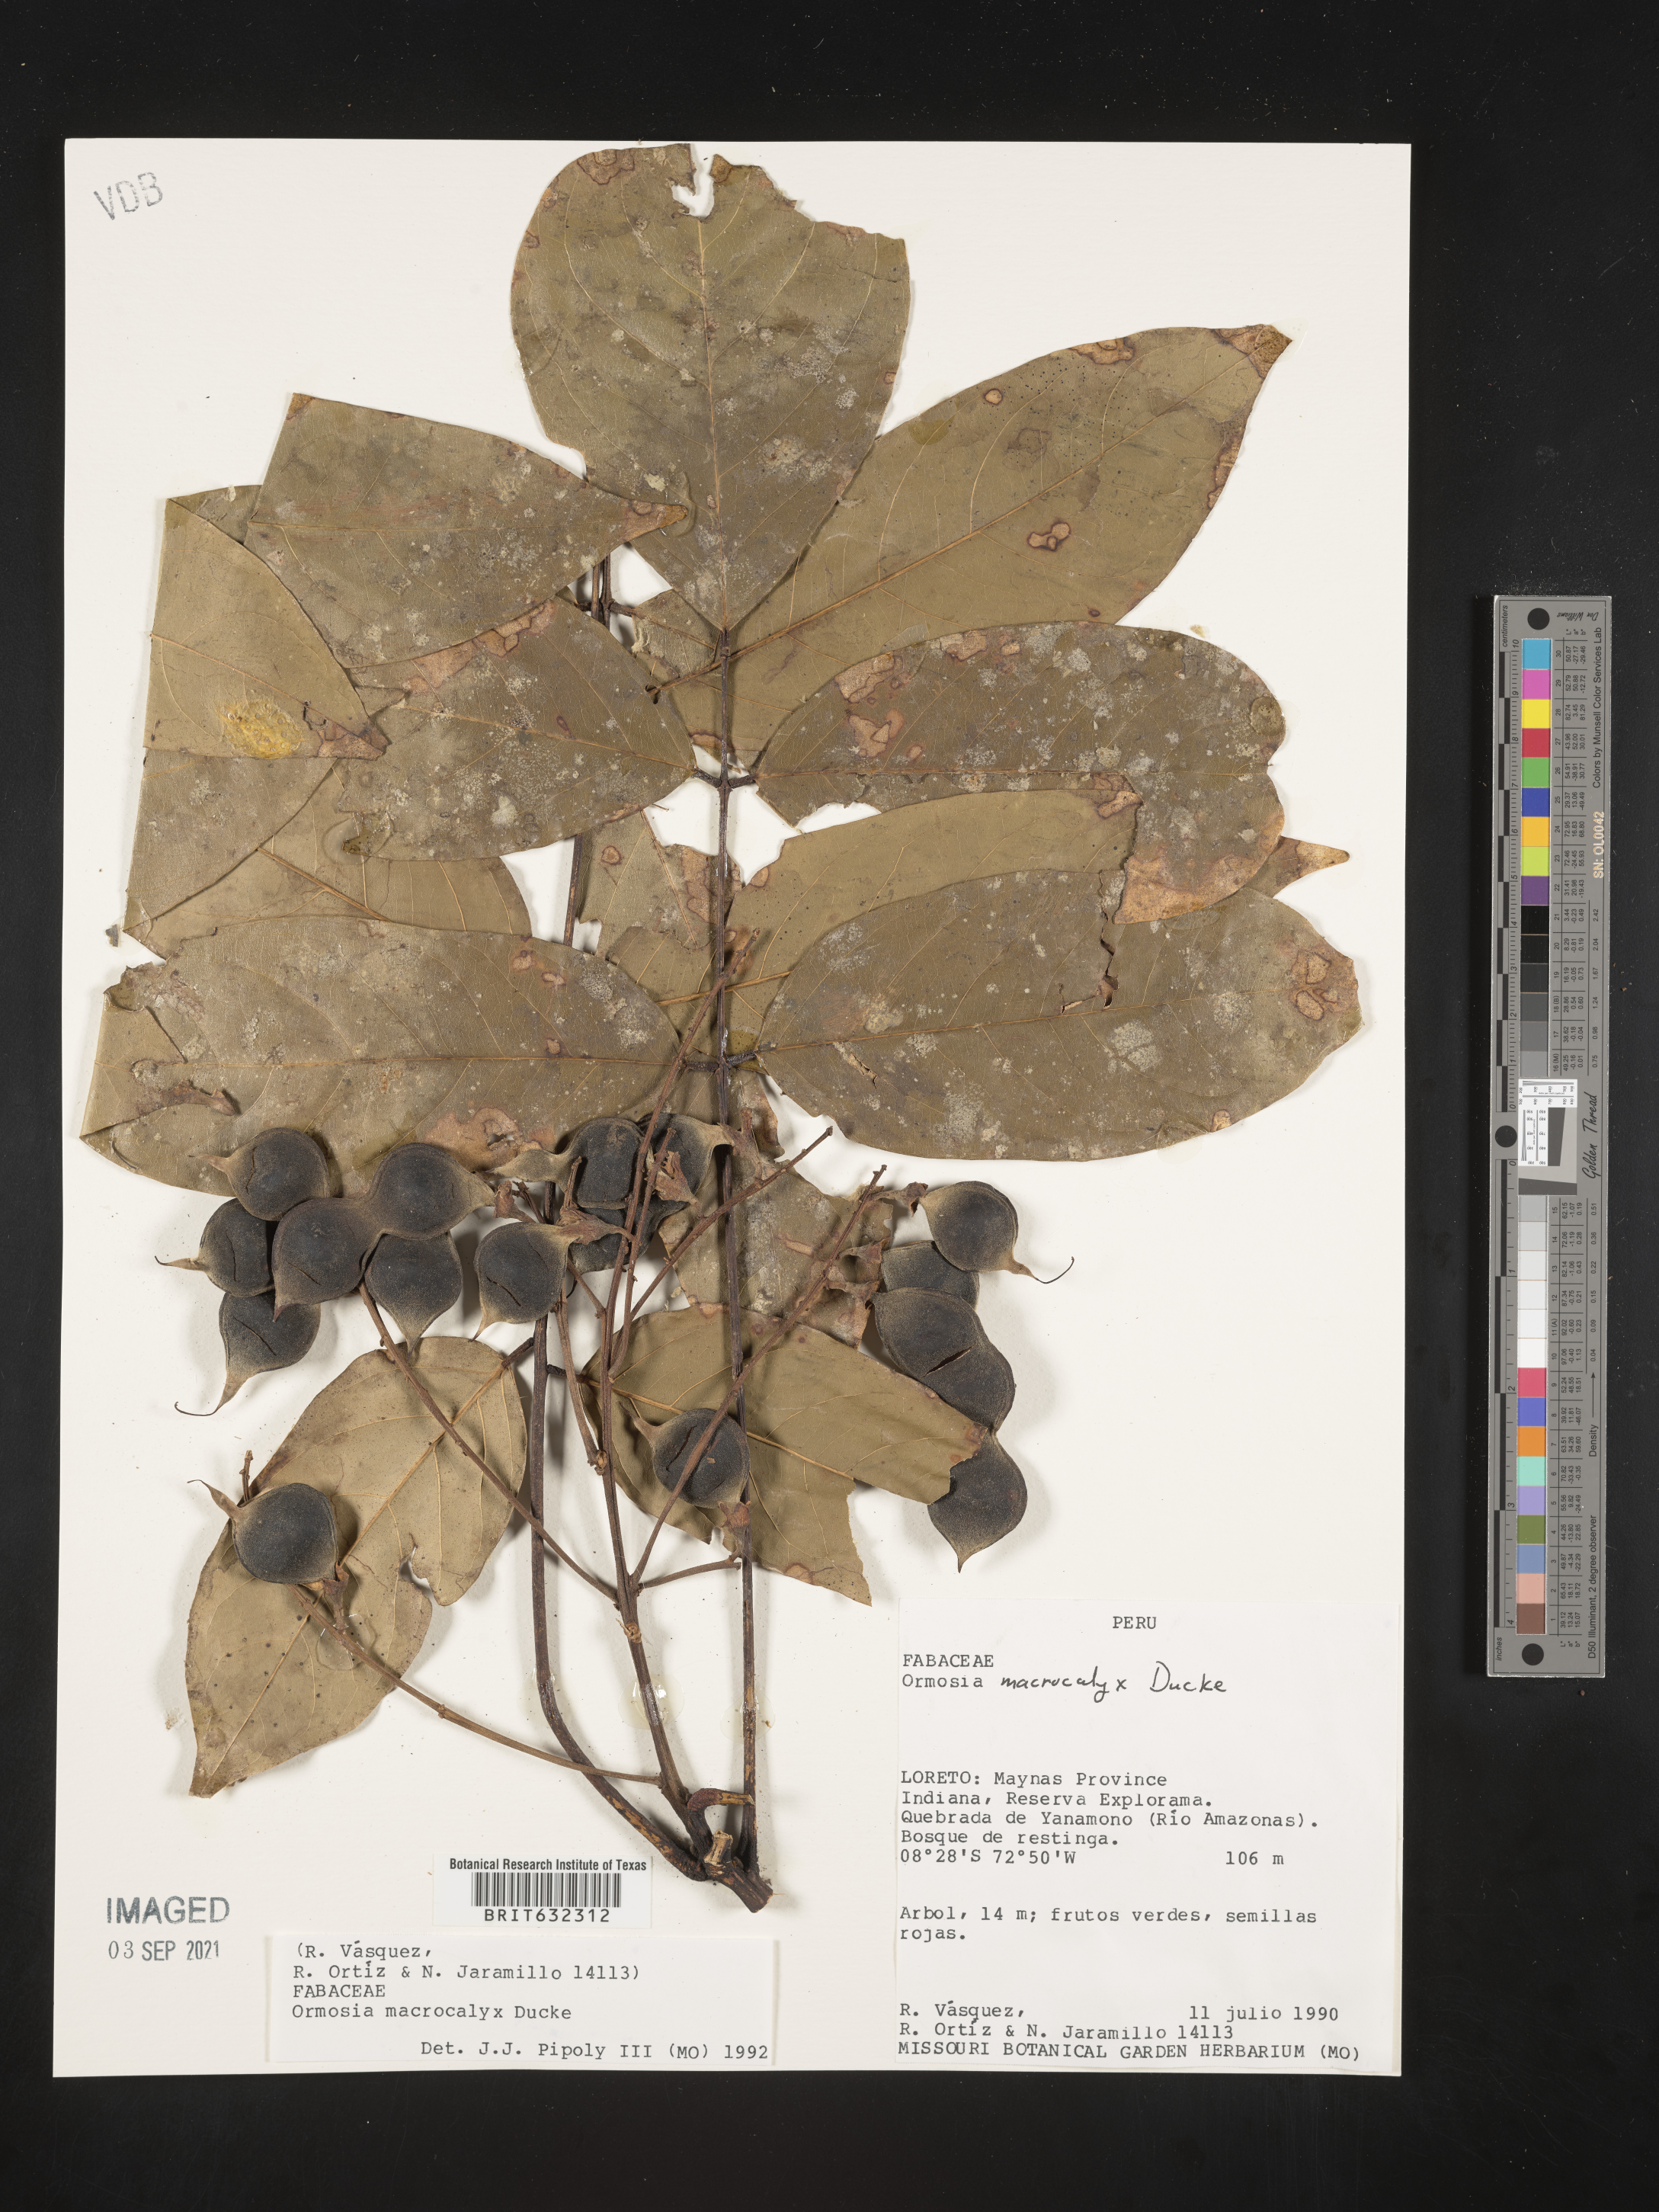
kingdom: Plantae
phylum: Tracheophyta
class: Magnoliopsida
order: Fabales
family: Fabaceae
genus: Ormosia
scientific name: Ormosia
